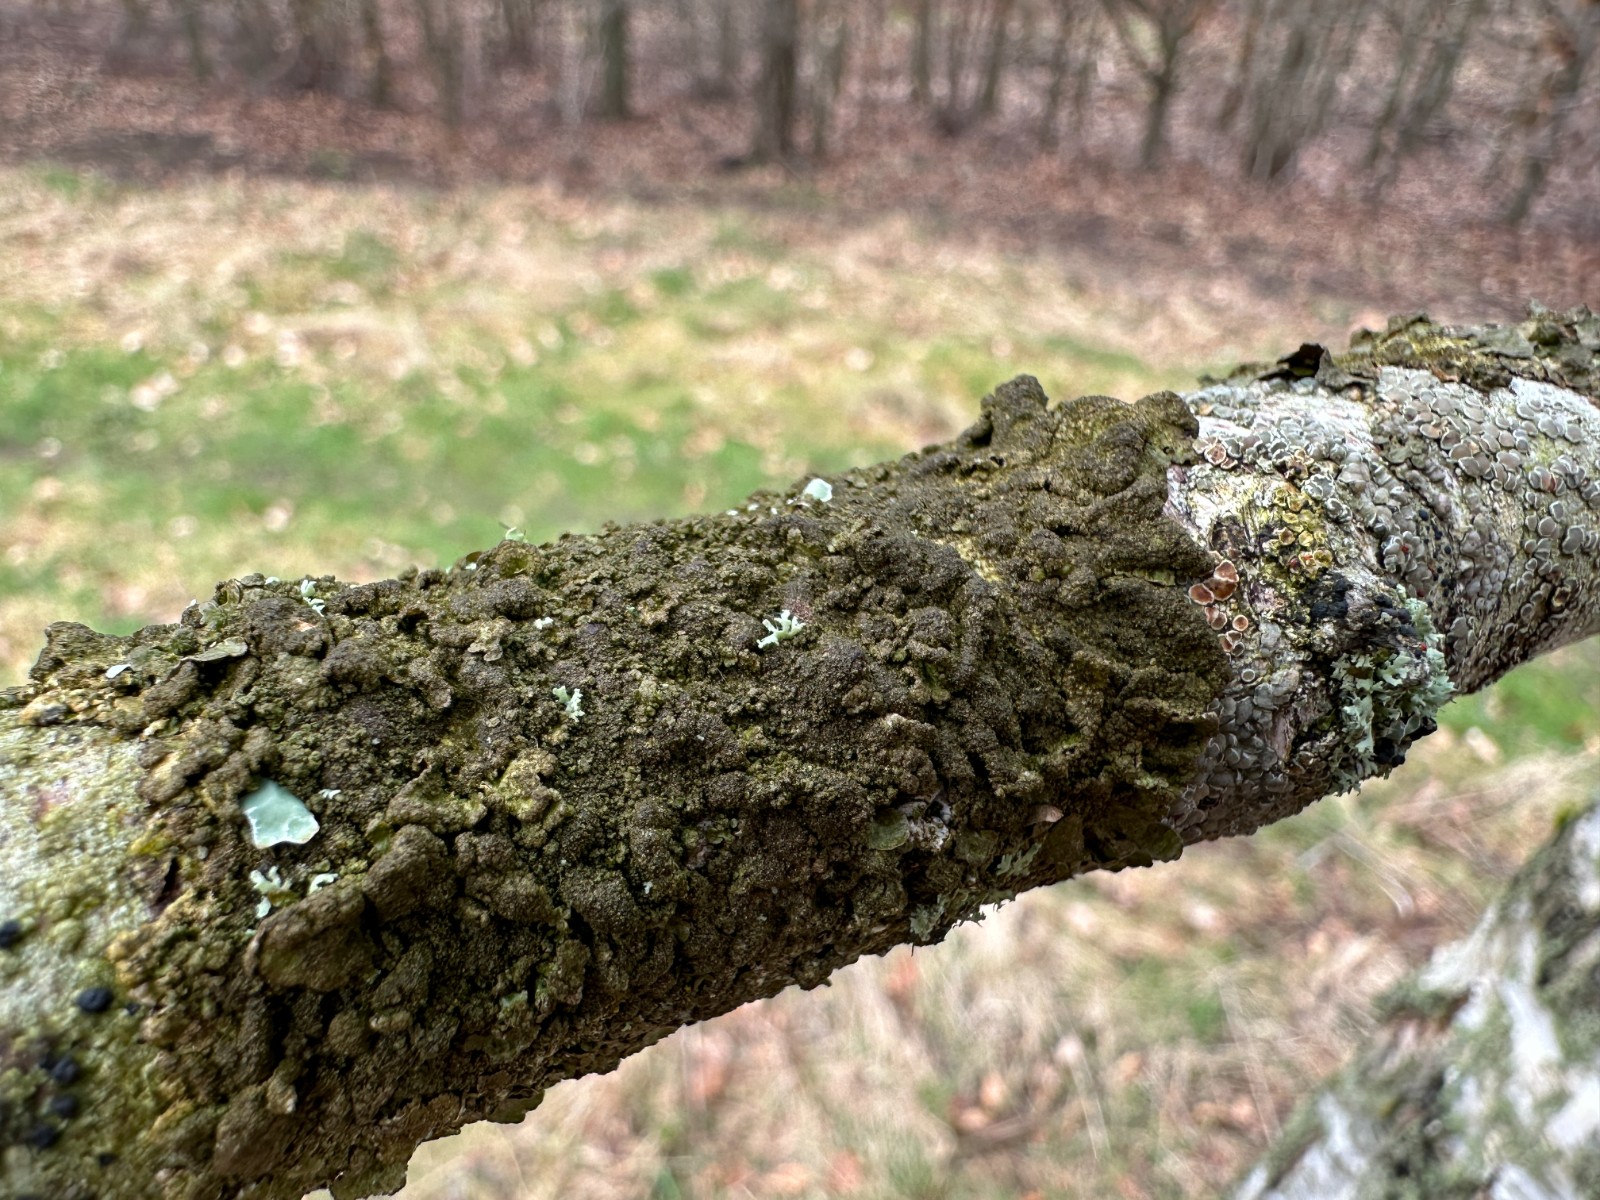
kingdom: Fungi
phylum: Ascomycota
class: Lecanoromycetes
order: Lecanorales
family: Parmeliaceae
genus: Melanelixia
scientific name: Melanelixia subaurifera
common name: guldpudret skållav
